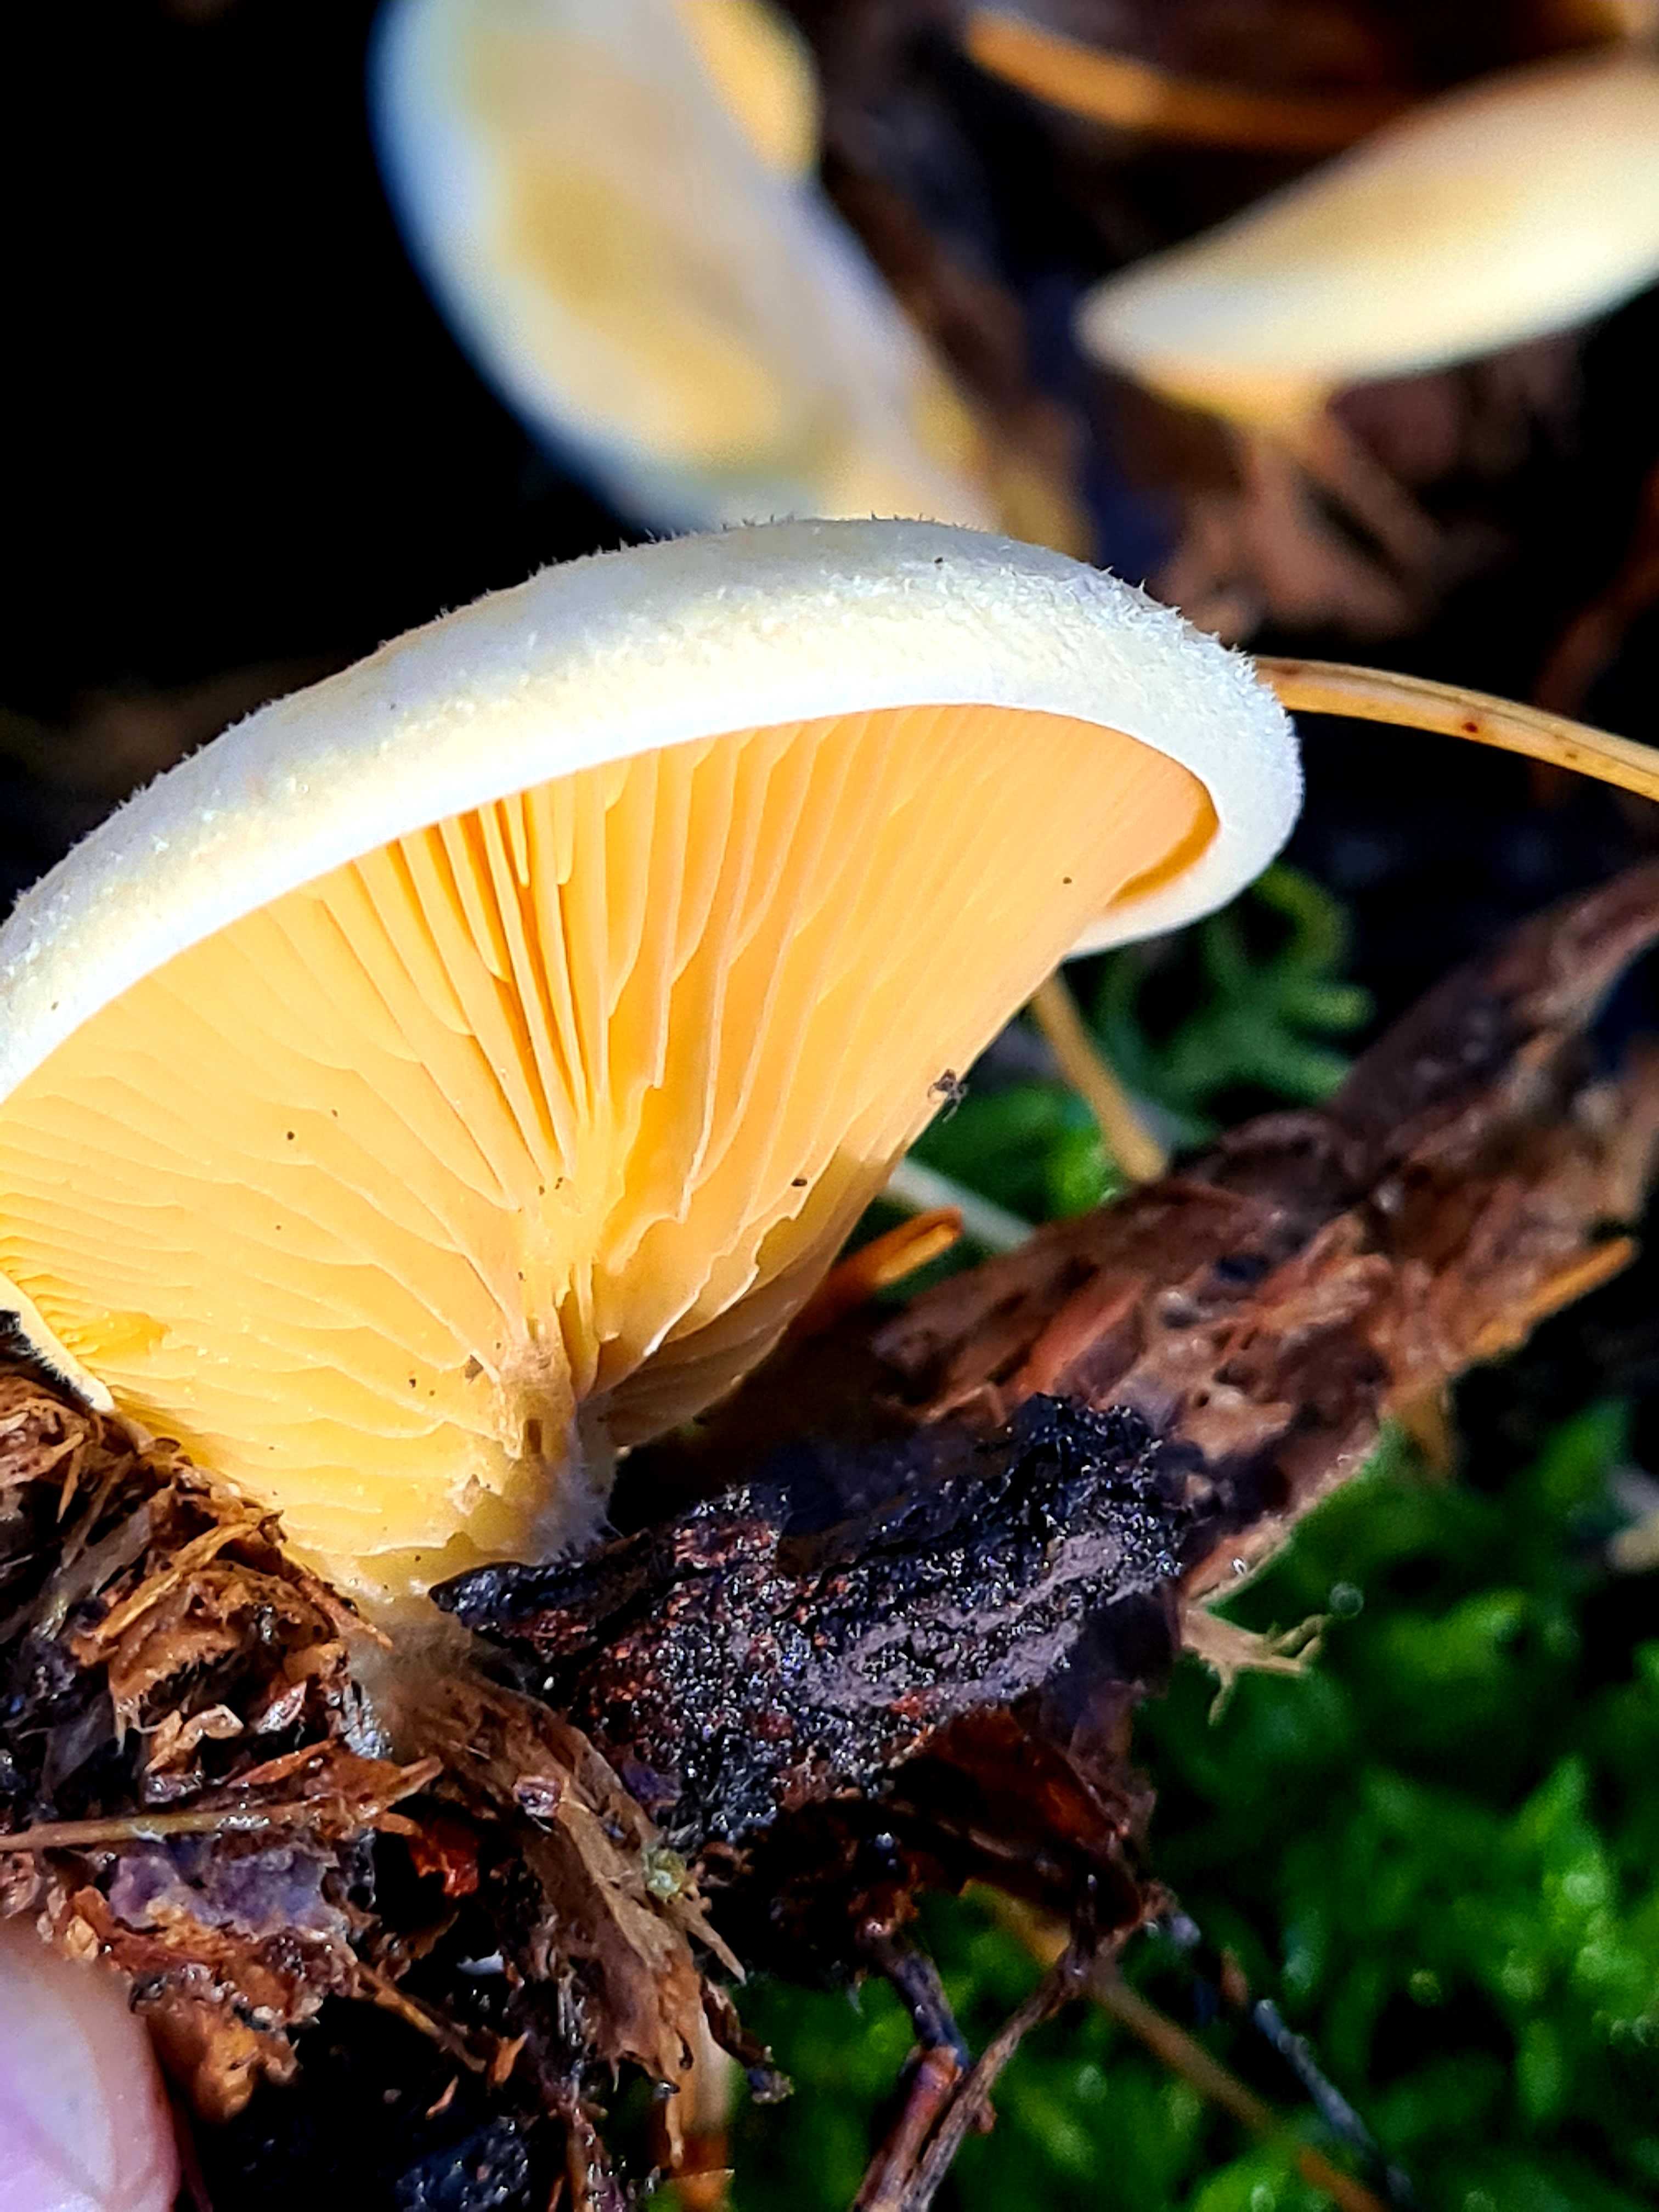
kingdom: Fungi
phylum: Basidiomycota
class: Agaricomycetes
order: Agaricales
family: Phyllotopsidaceae
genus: Phyllotopsis
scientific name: Phyllotopsis nidulans
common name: okkerblad
